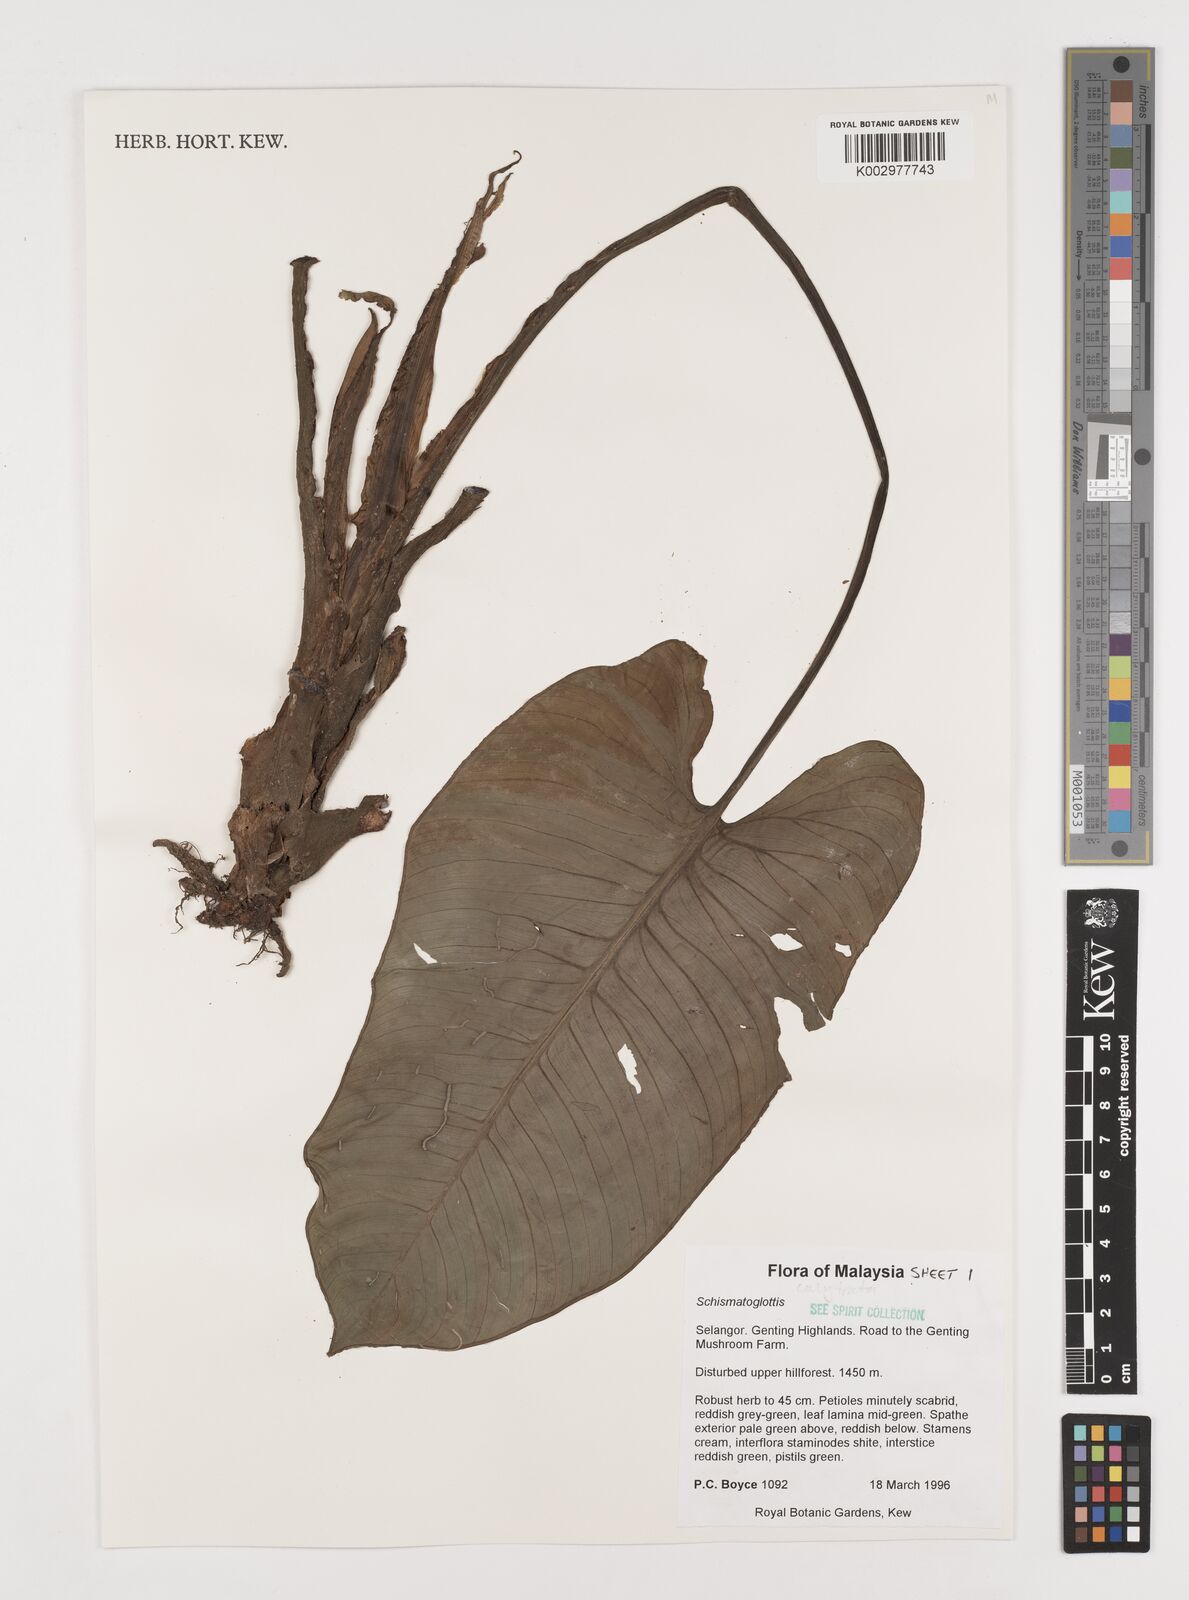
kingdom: Plantae
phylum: Tracheophyta
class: Liliopsida
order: Alismatales
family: Araceae
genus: Schismatoglottis
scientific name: Schismatoglottis calyptrata
